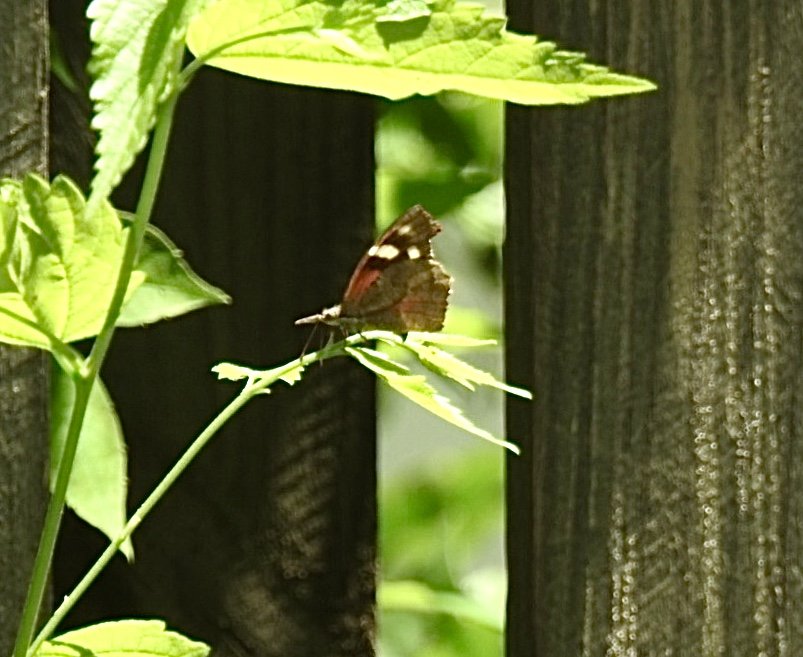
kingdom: Animalia
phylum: Arthropoda
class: Insecta
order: Lepidoptera
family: Nymphalidae
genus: Libytheana
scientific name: Libytheana carinenta
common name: American Snout
